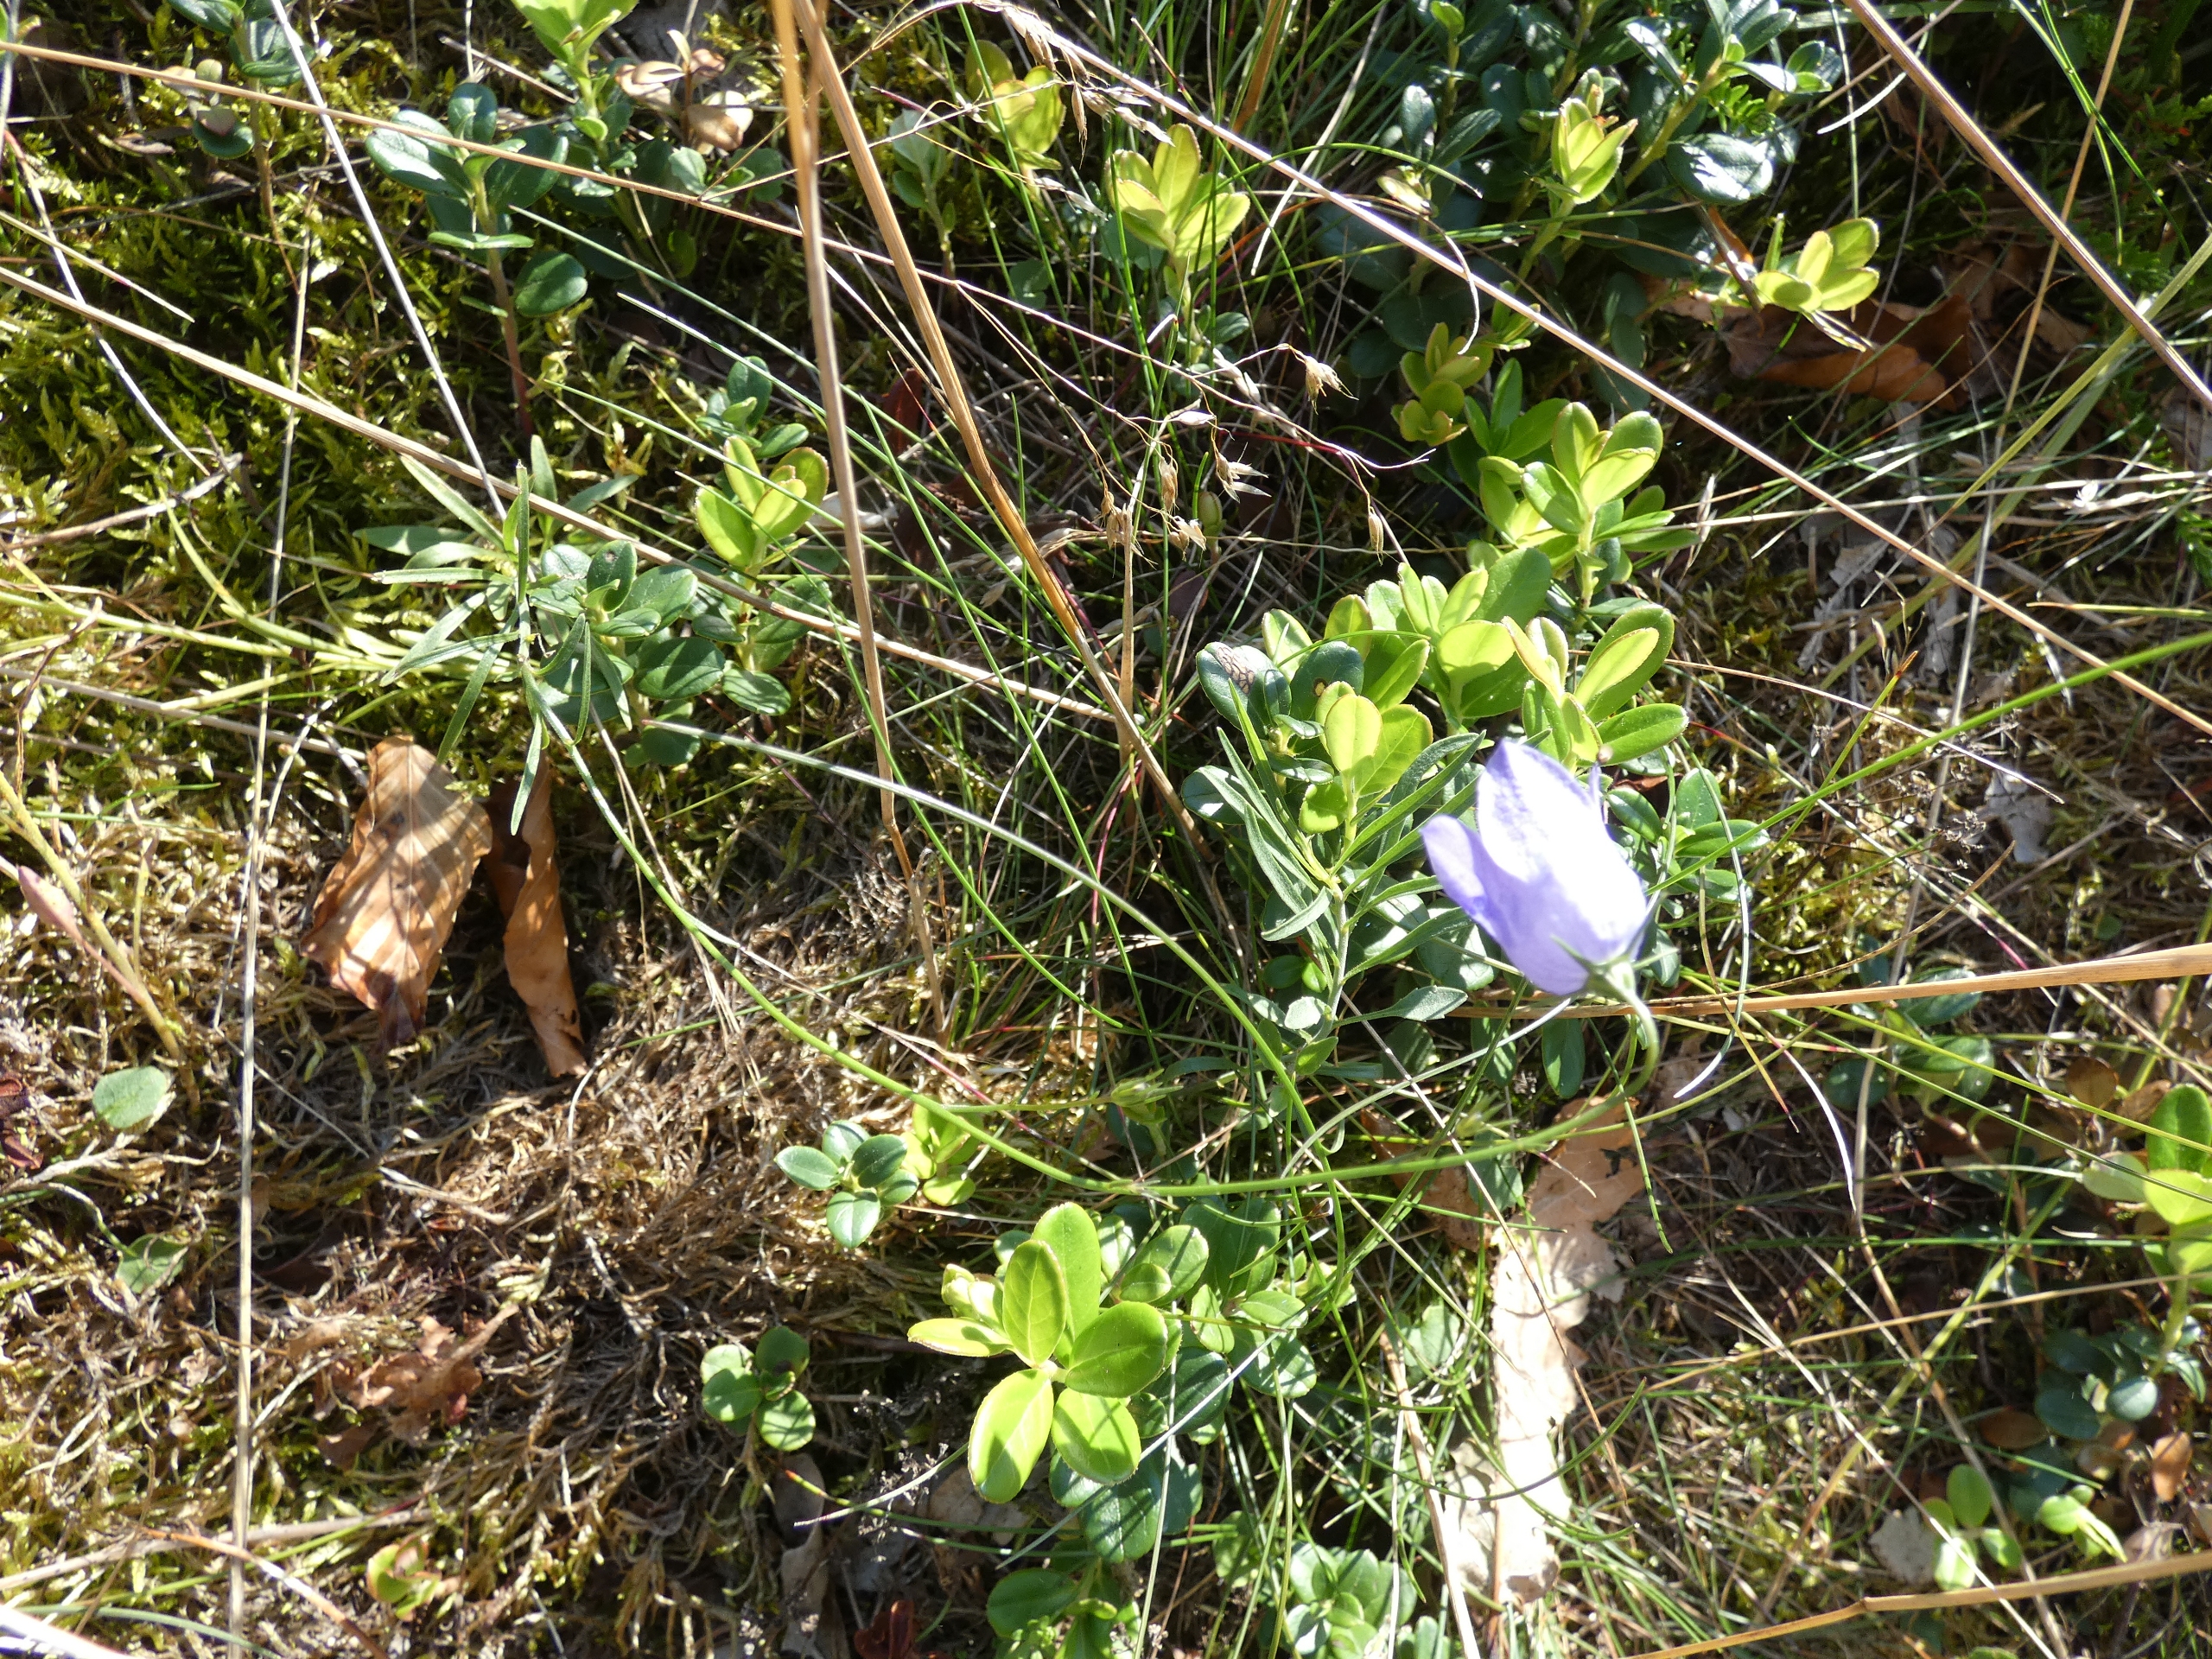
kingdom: Plantae
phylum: Tracheophyta
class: Magnoliopsida
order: Asterales
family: Campanulaceae
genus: Campanula
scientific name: Campanula rotundifolia
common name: Liden klokke
